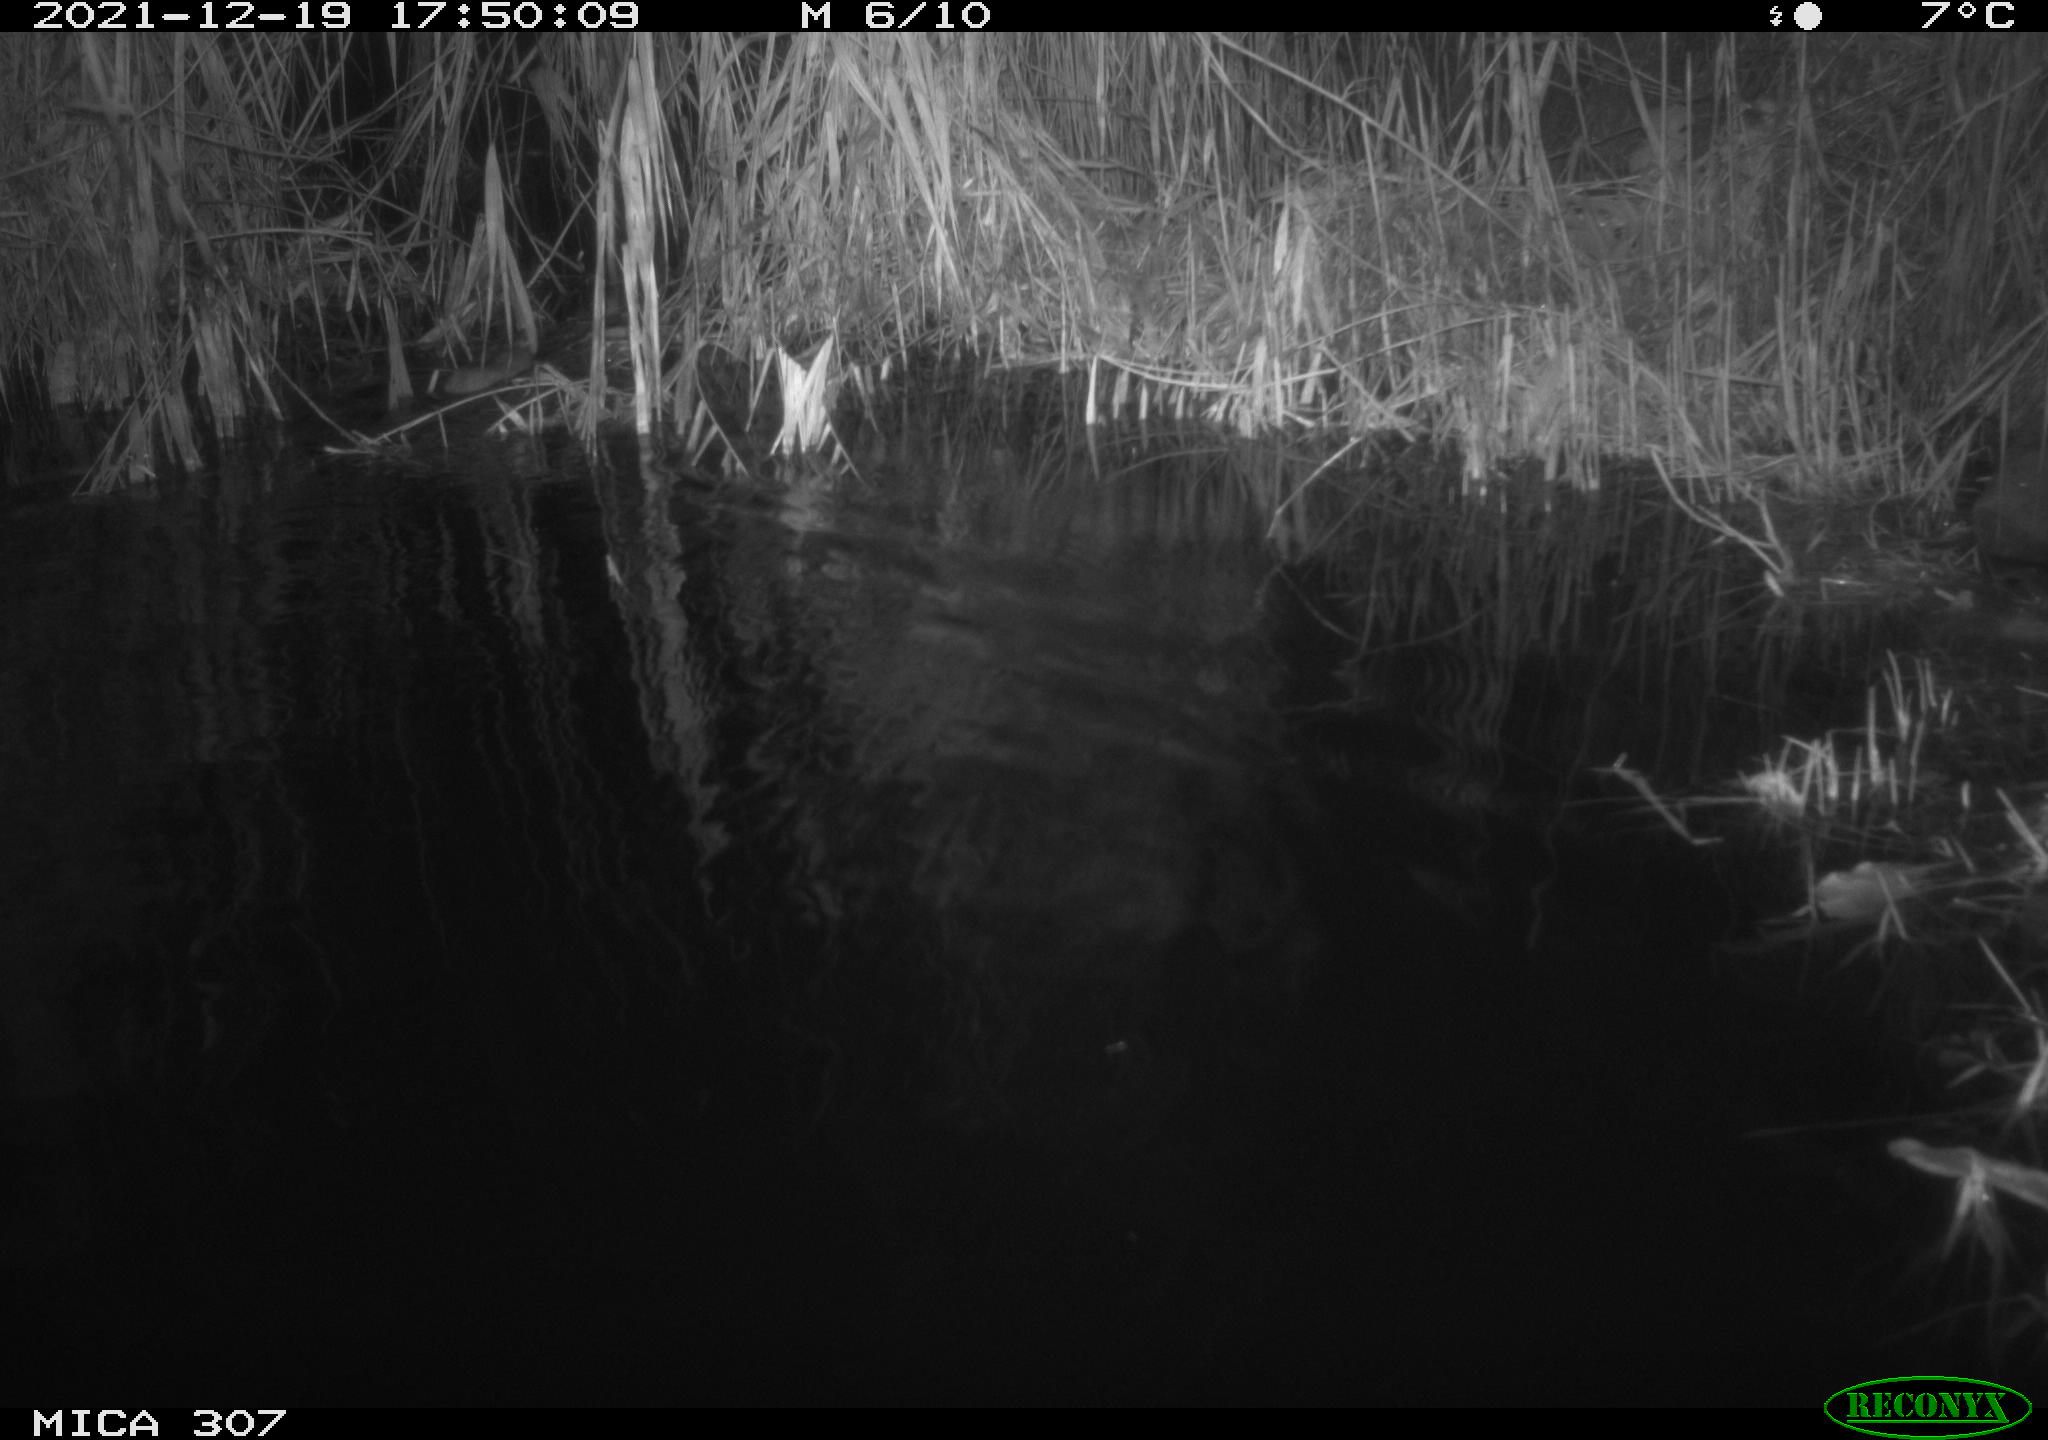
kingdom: Animalia
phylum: Chordata
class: Mammalia
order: Rodentia
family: Muridae
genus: Rattus
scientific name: Rattus norvegicus
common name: Brown rat
